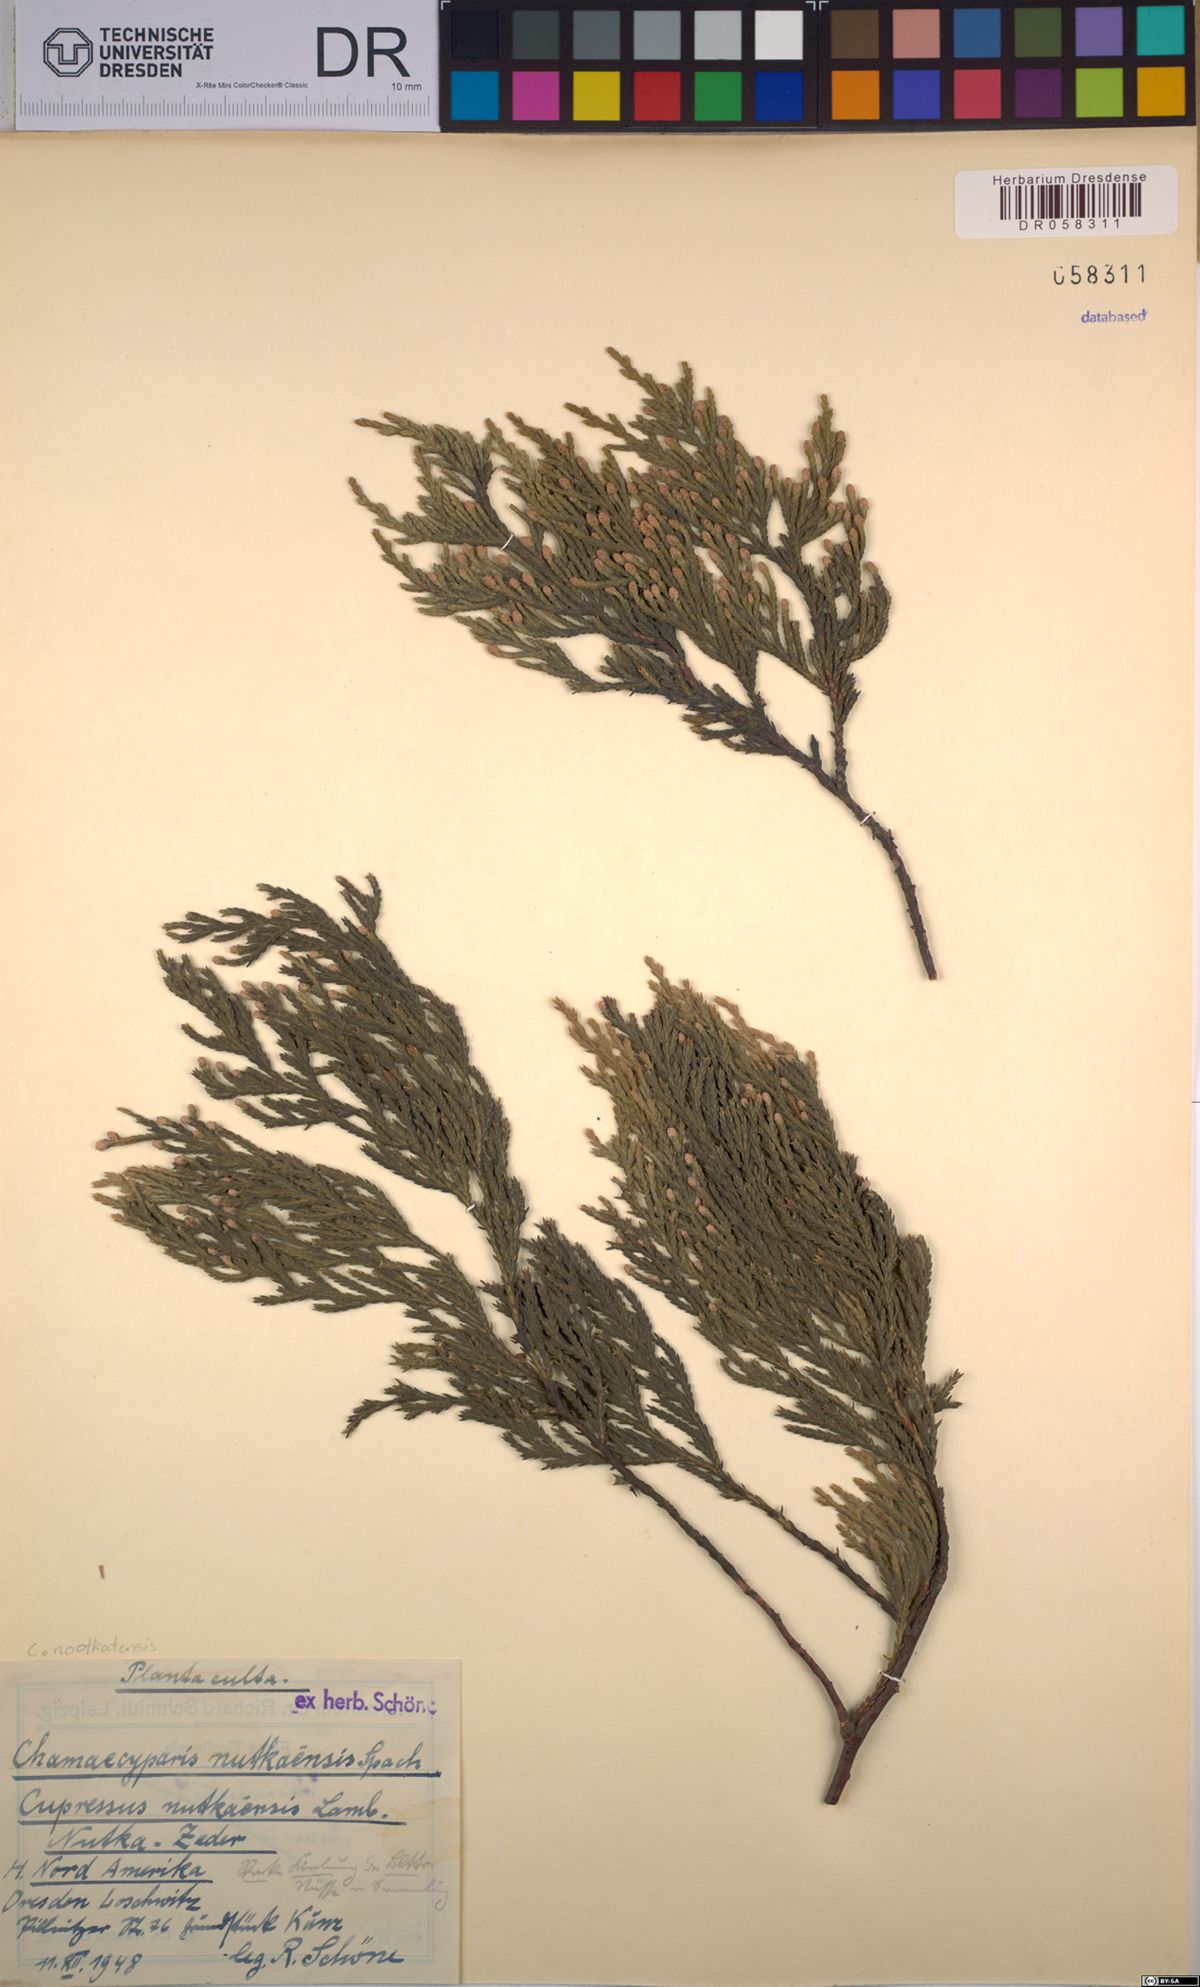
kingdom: Plantae
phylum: Tracheophyta
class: Pinopsida
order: Pinales
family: Cupressaceae
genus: Xanthocyparis
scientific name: Xanthocyparis nootkatensis
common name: Nootka cypress
